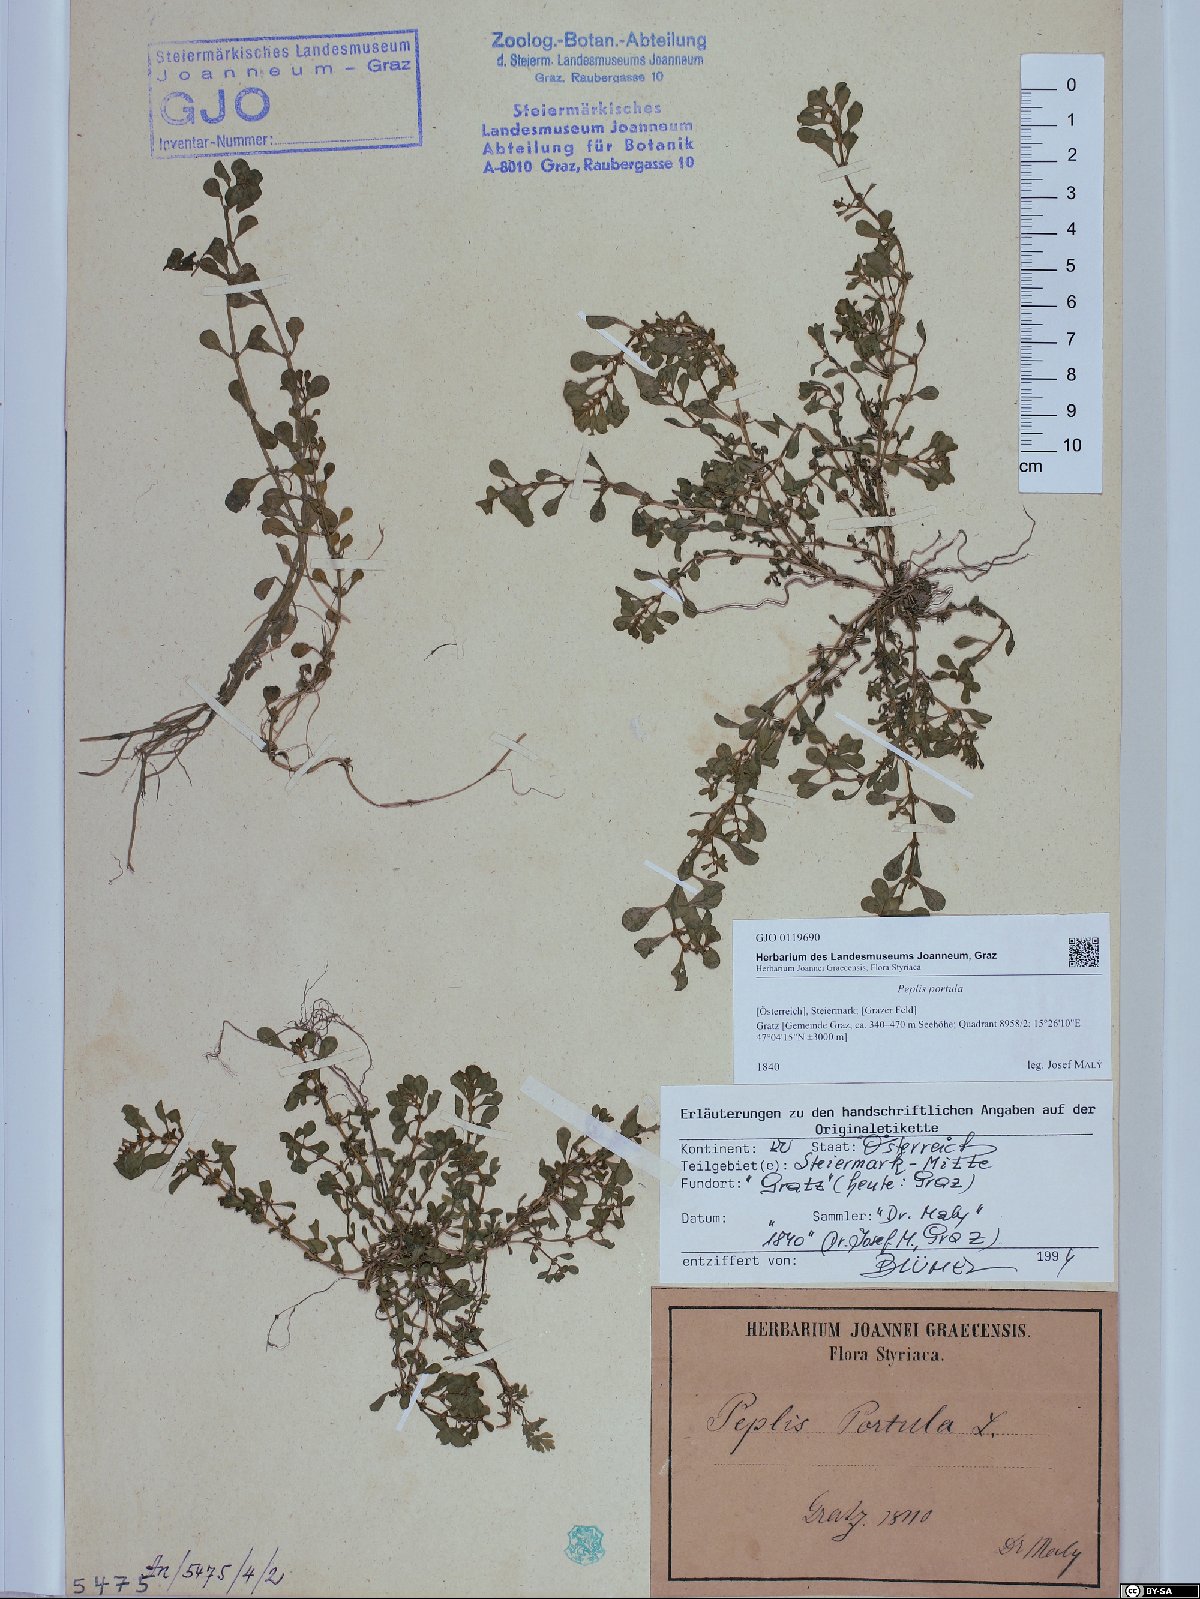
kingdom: Plantae
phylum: Tracheophyta
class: Magnoliopsida
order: Myrtales
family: Lythraceae
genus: Lythrum
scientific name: Lythrum portula
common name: Water purslane
